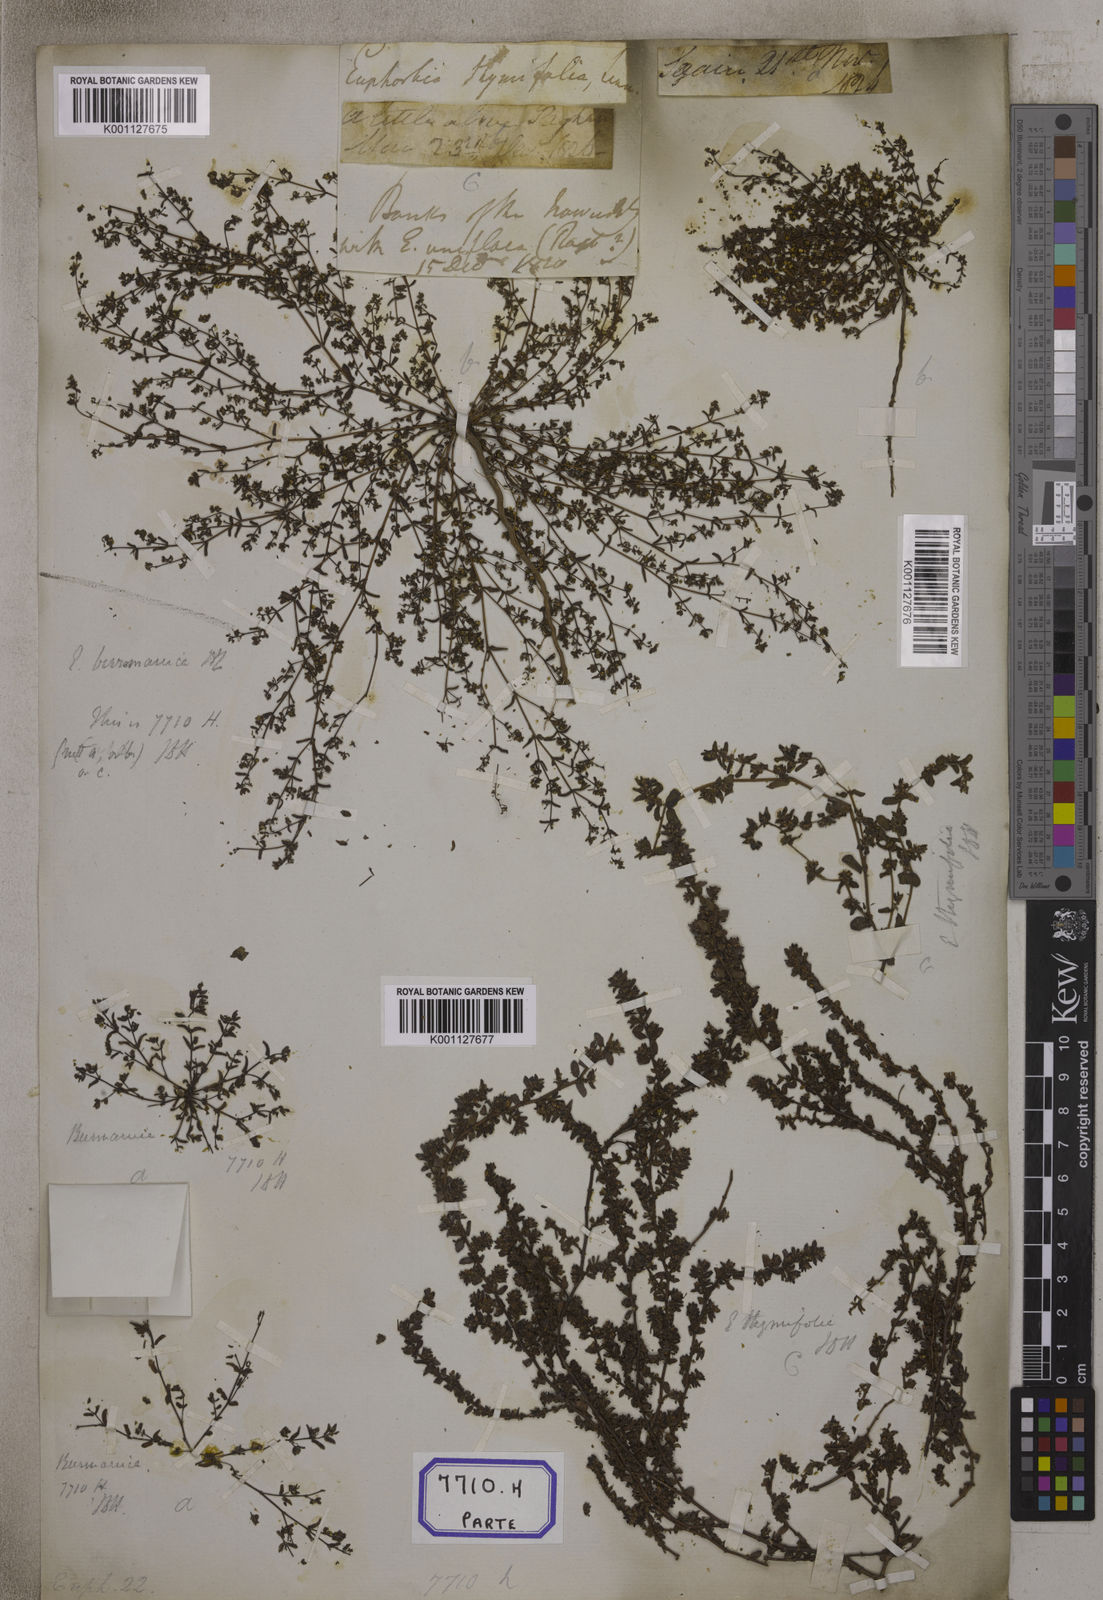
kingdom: Plantae
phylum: Tracheophyta
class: Magnoliopsida
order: Malpighiales
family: Euphorbiaceae
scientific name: Euphorbiaceae
